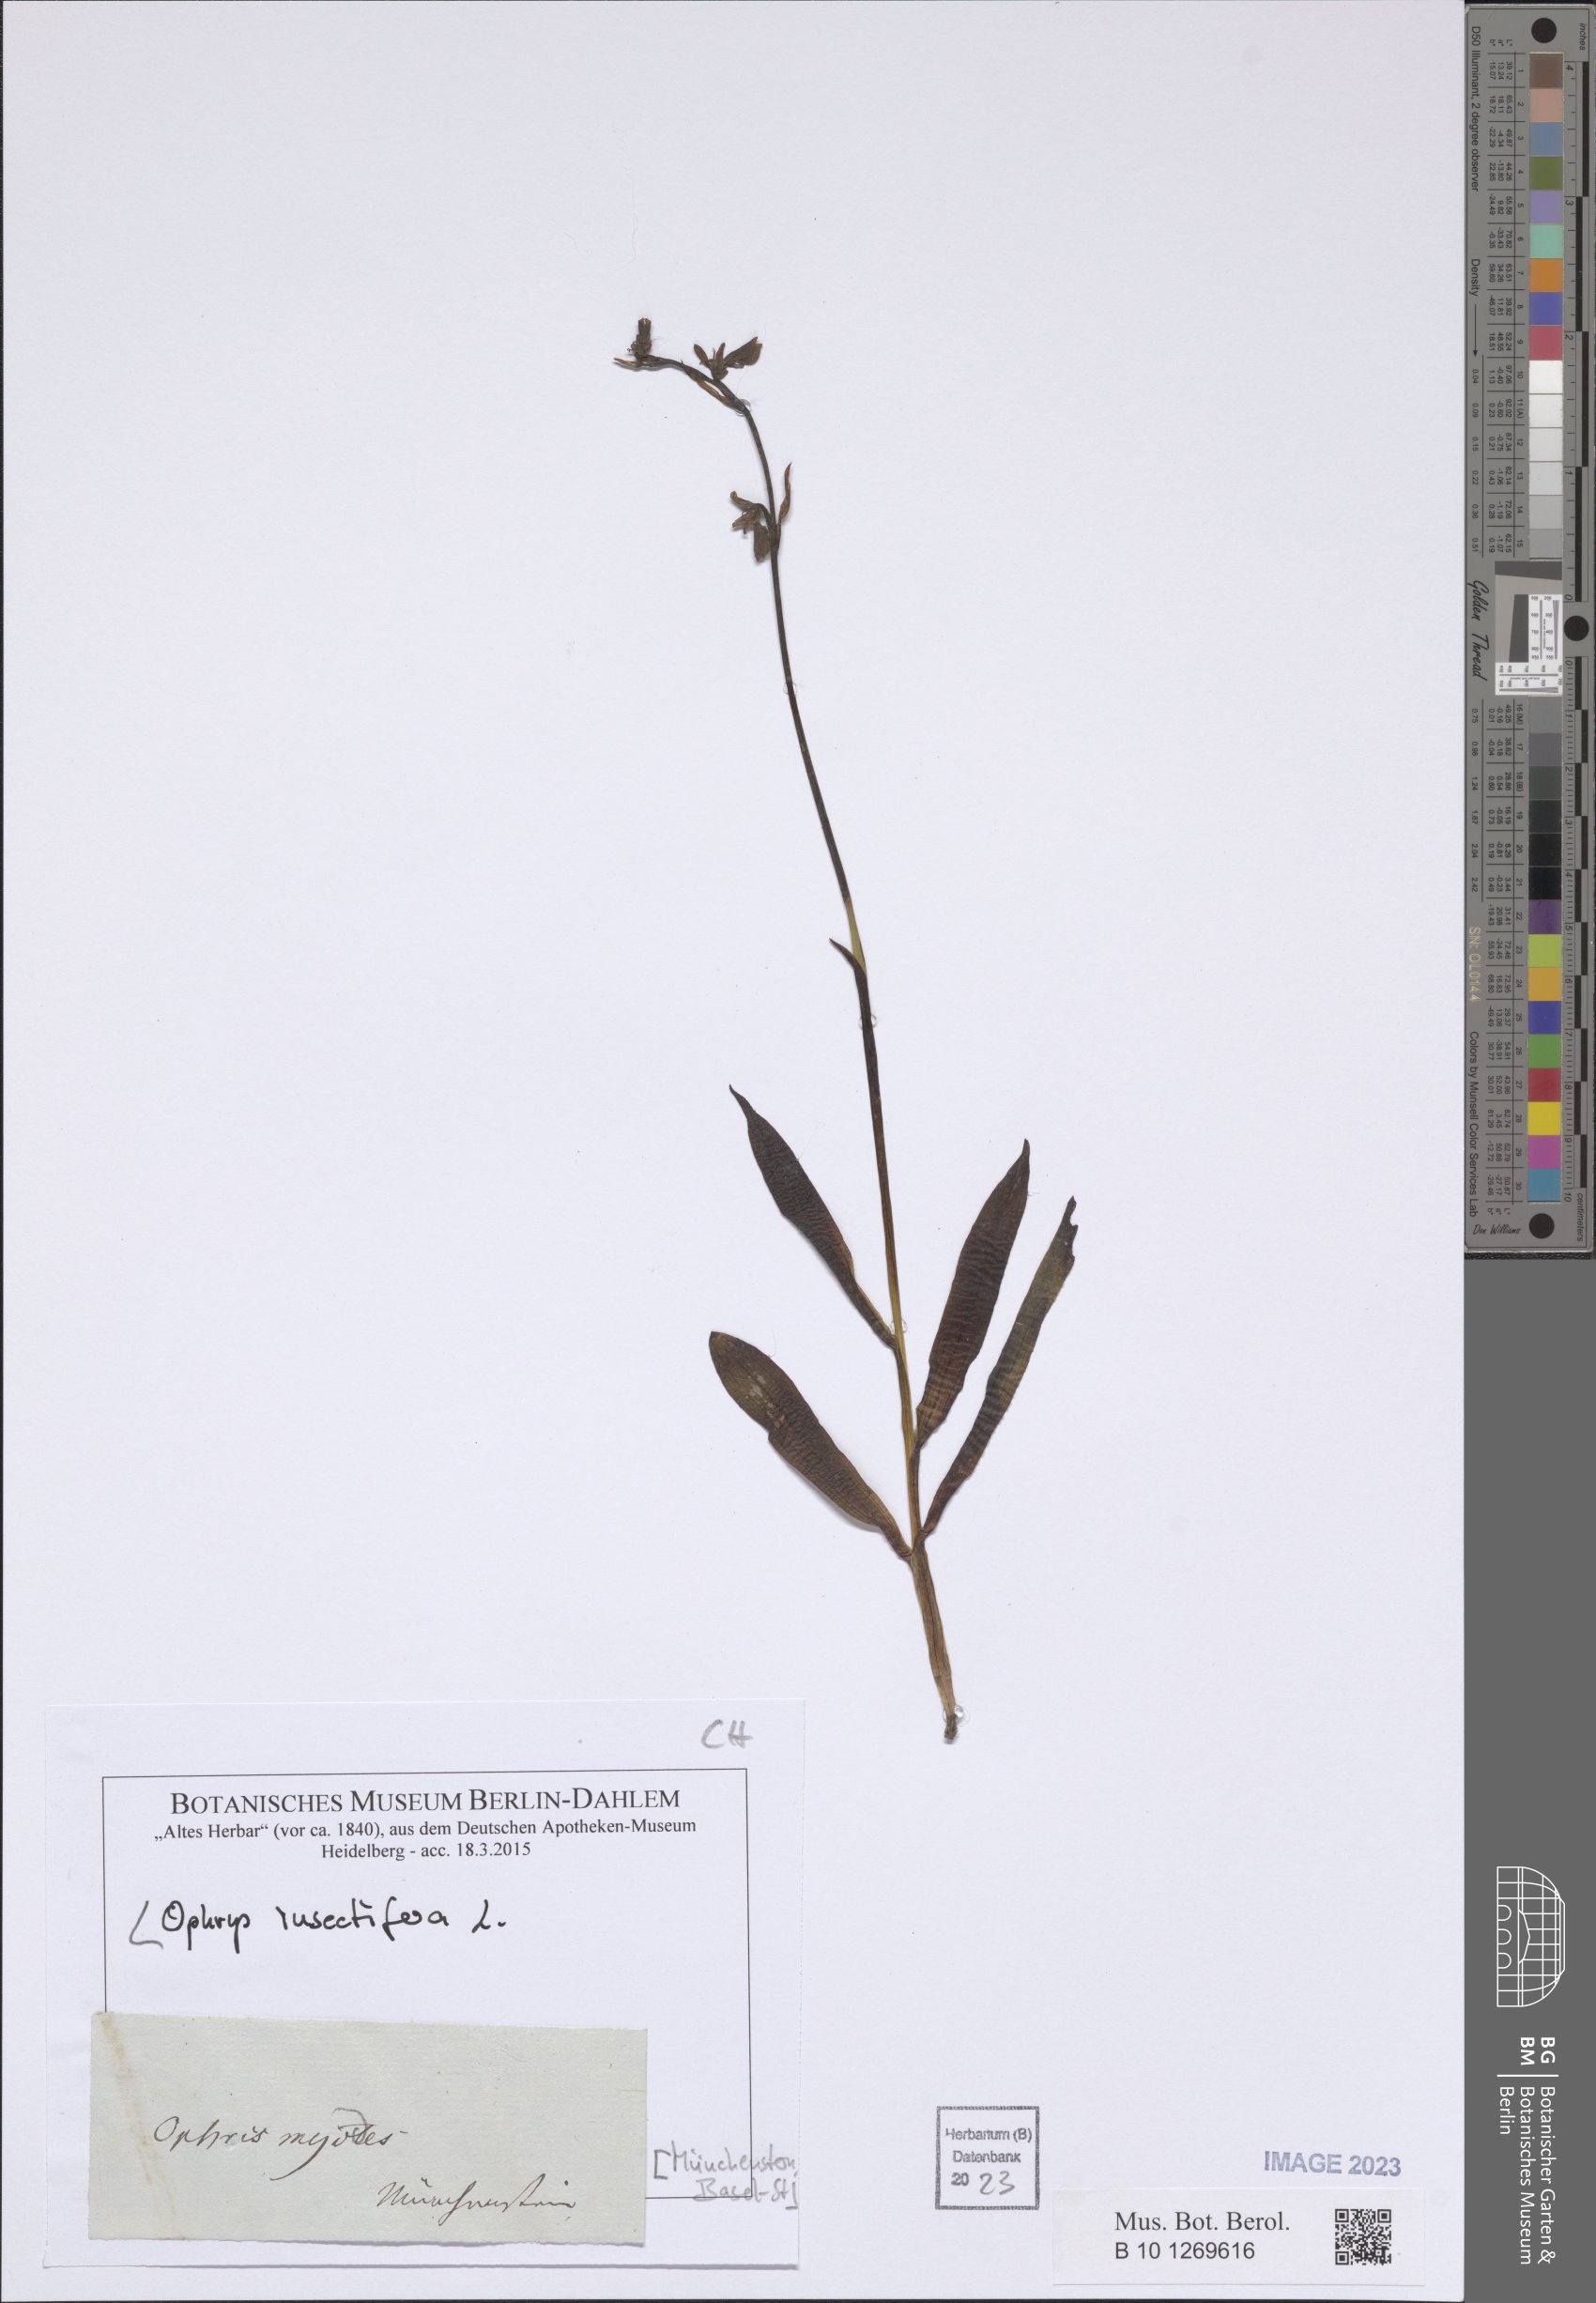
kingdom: Plantae
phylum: Tracheophyta
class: Liliopsida
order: Asparagales
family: Orchidaceae
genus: Ophrys
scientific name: Ophrys insectifera
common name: Fly orchid
